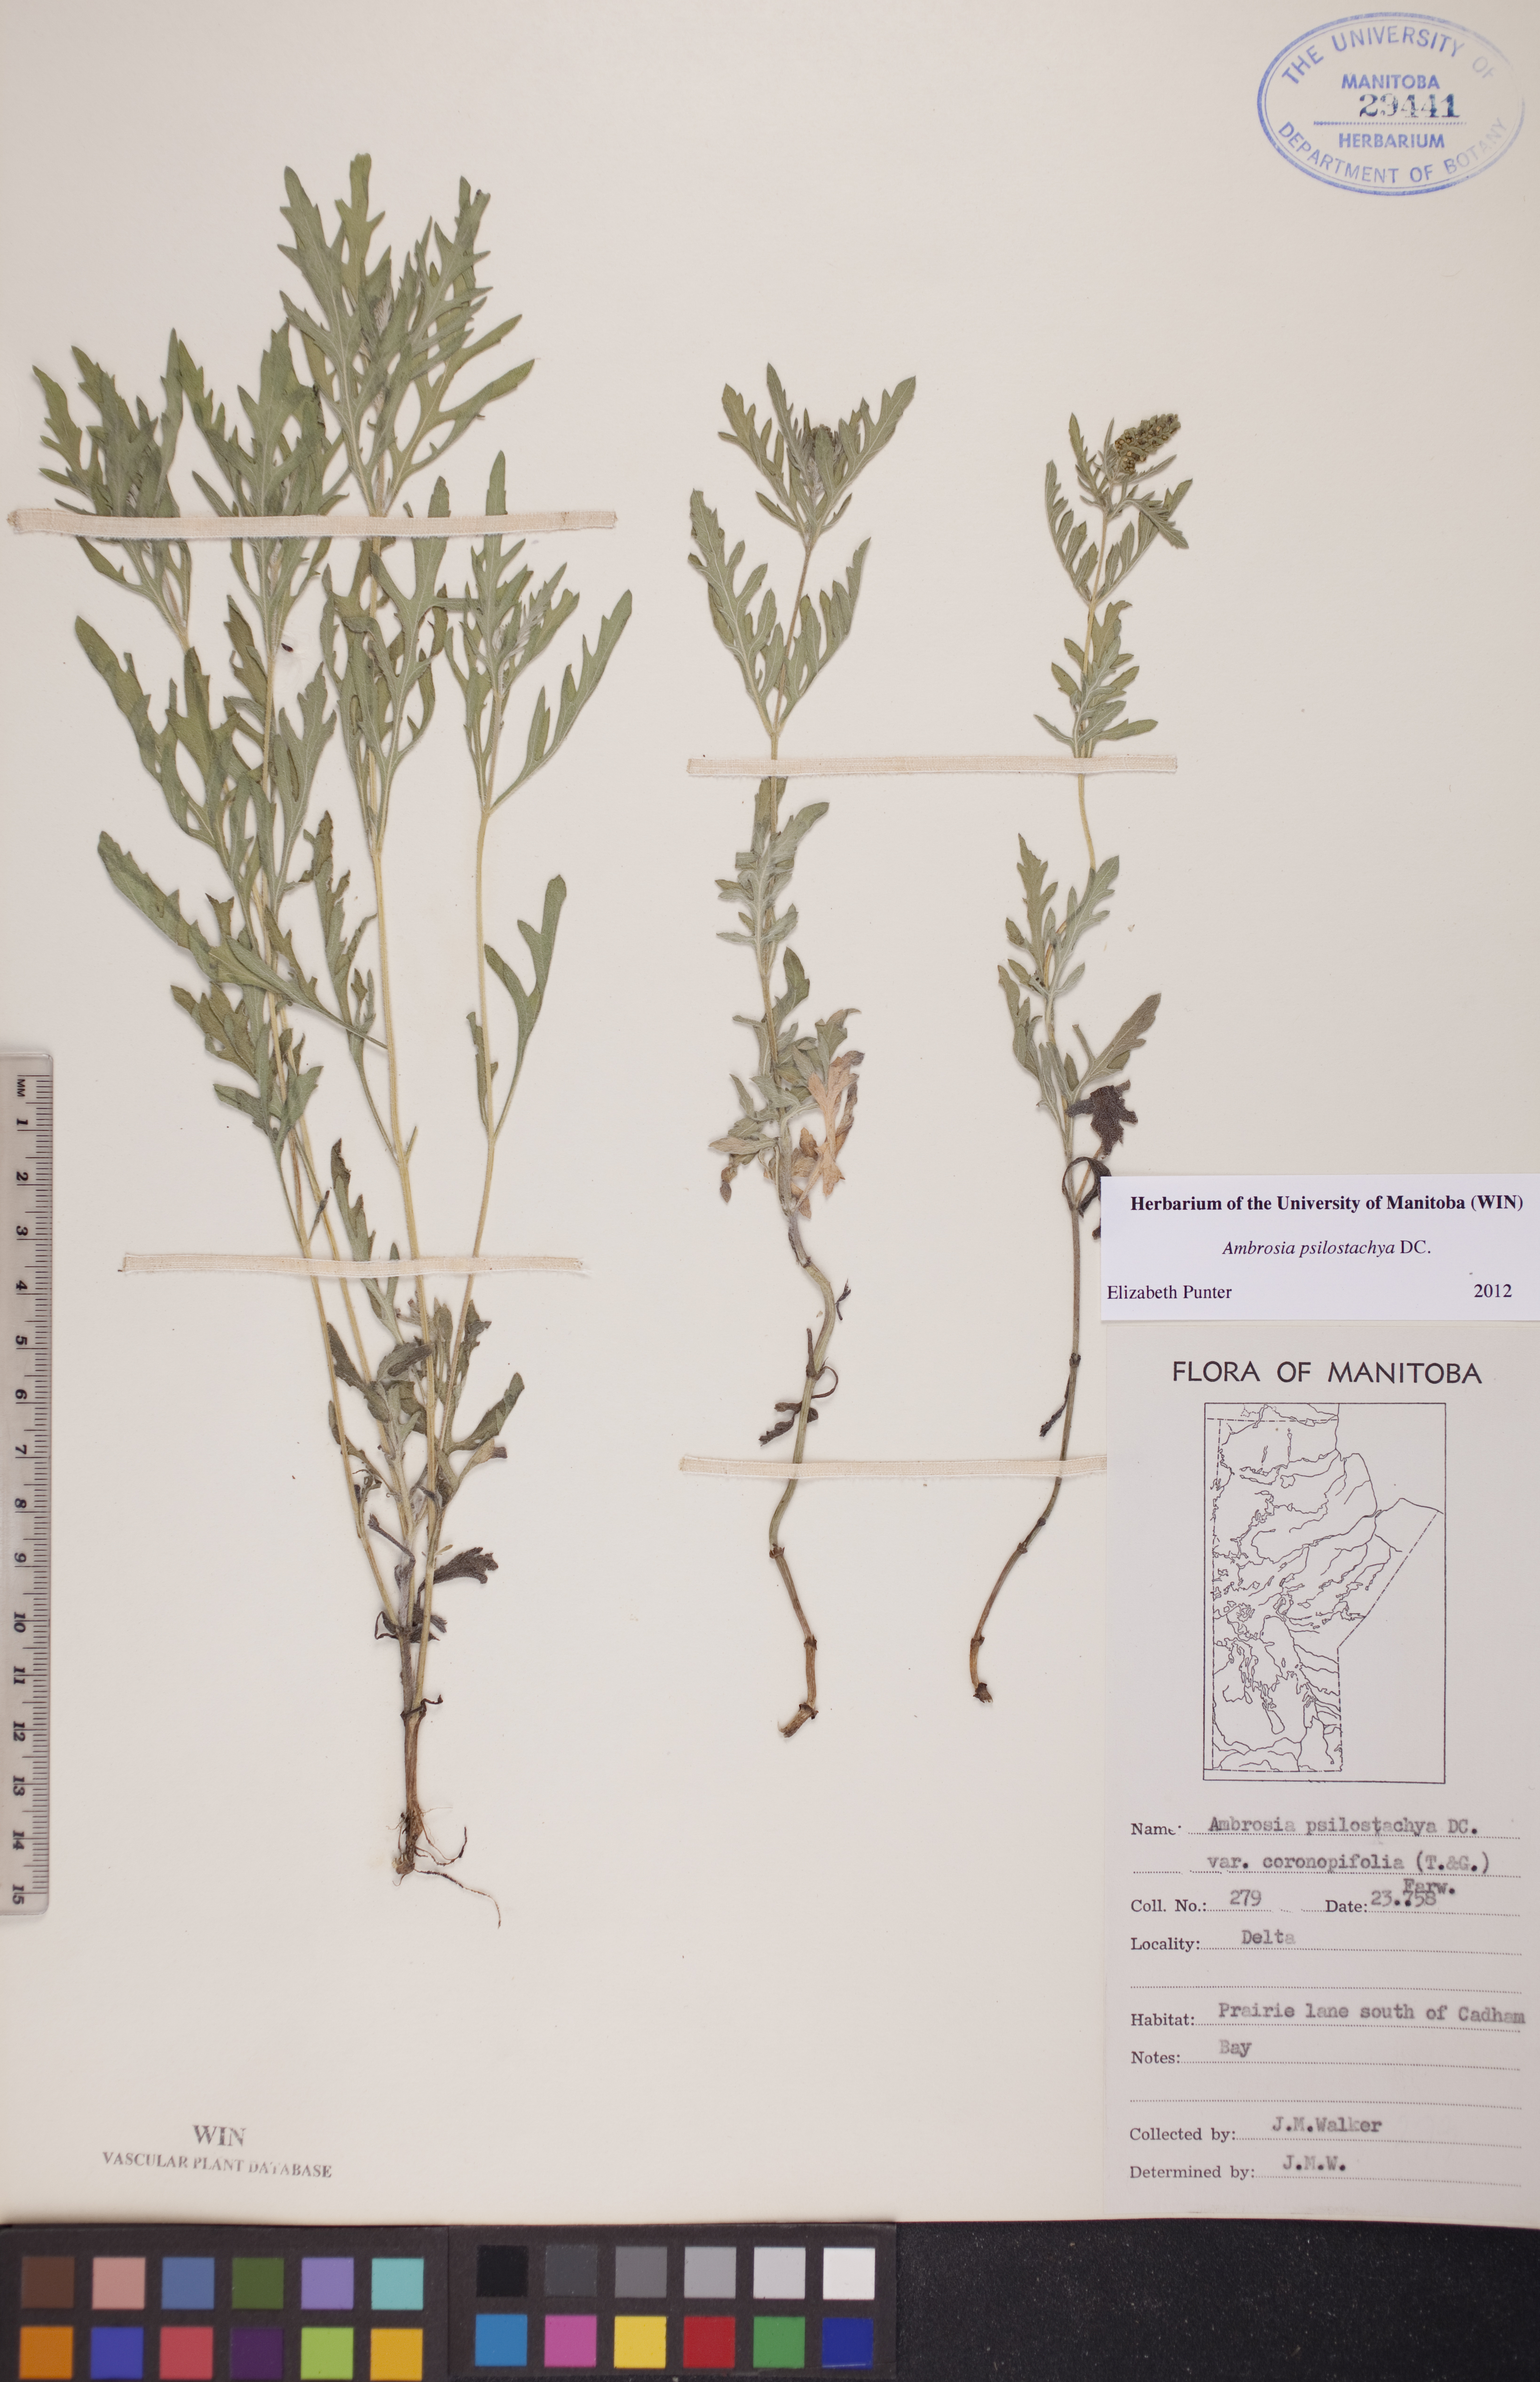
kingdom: Plantae
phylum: Tracheophyta
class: Magnoliopsida
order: Asterales
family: Asteraceae
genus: Ambrosia
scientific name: Ambrosia psilostachya
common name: Perennial ragweed
